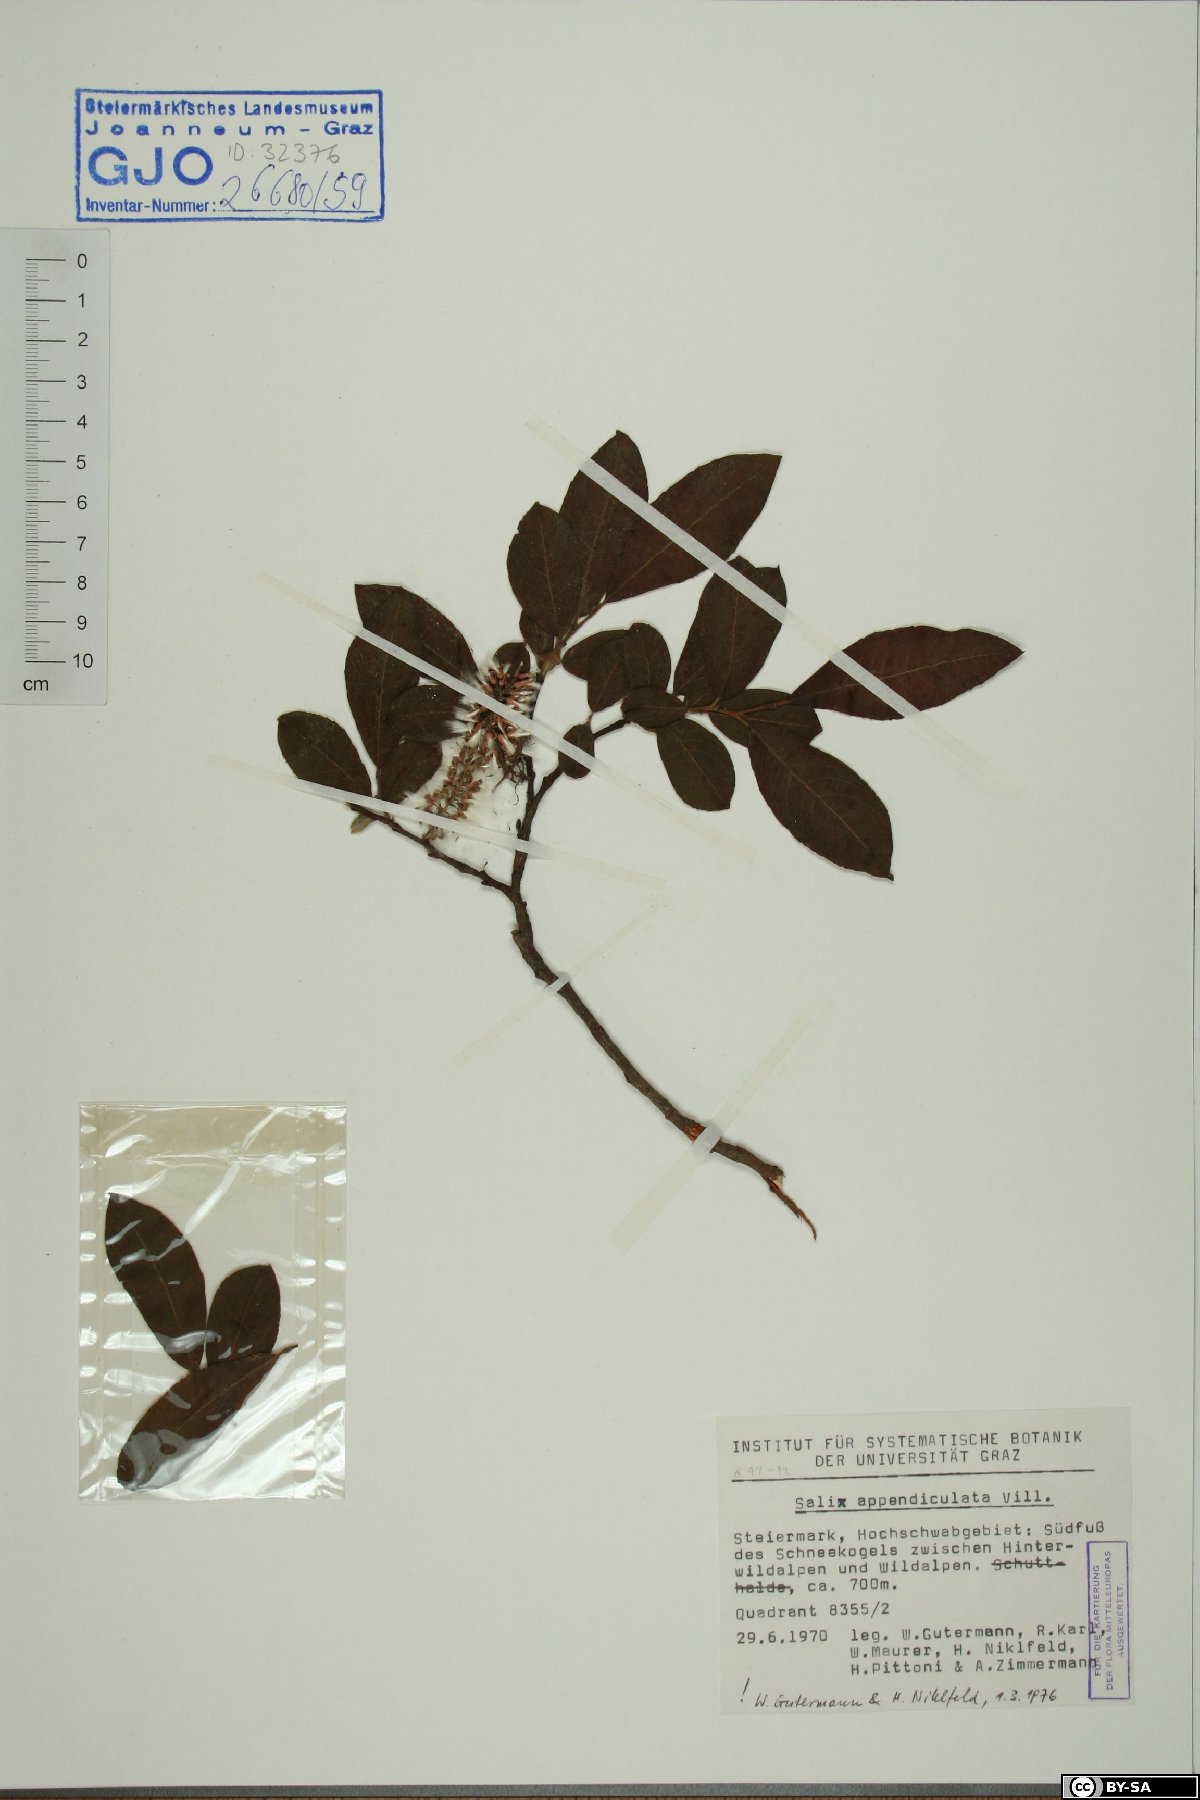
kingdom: Plantae
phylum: Tracheophyta
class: Magnoliopsida
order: Malpighiales
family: Salicaceae
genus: Salix
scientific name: Salix appendiculata
